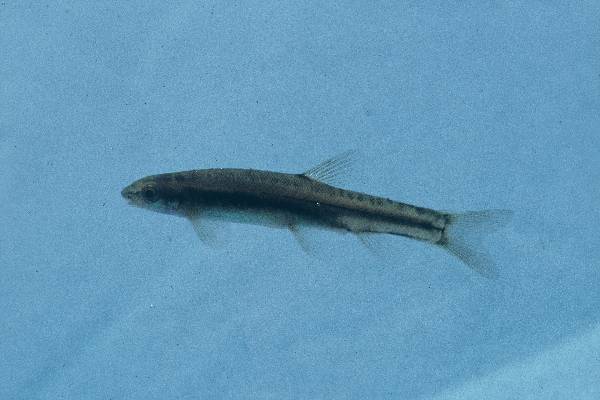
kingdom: Animalia
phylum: Chordata
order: Gonorynchiformes
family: Kneriidae
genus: Kneria
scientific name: Kneria auriculata
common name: Airbreathing shellear
